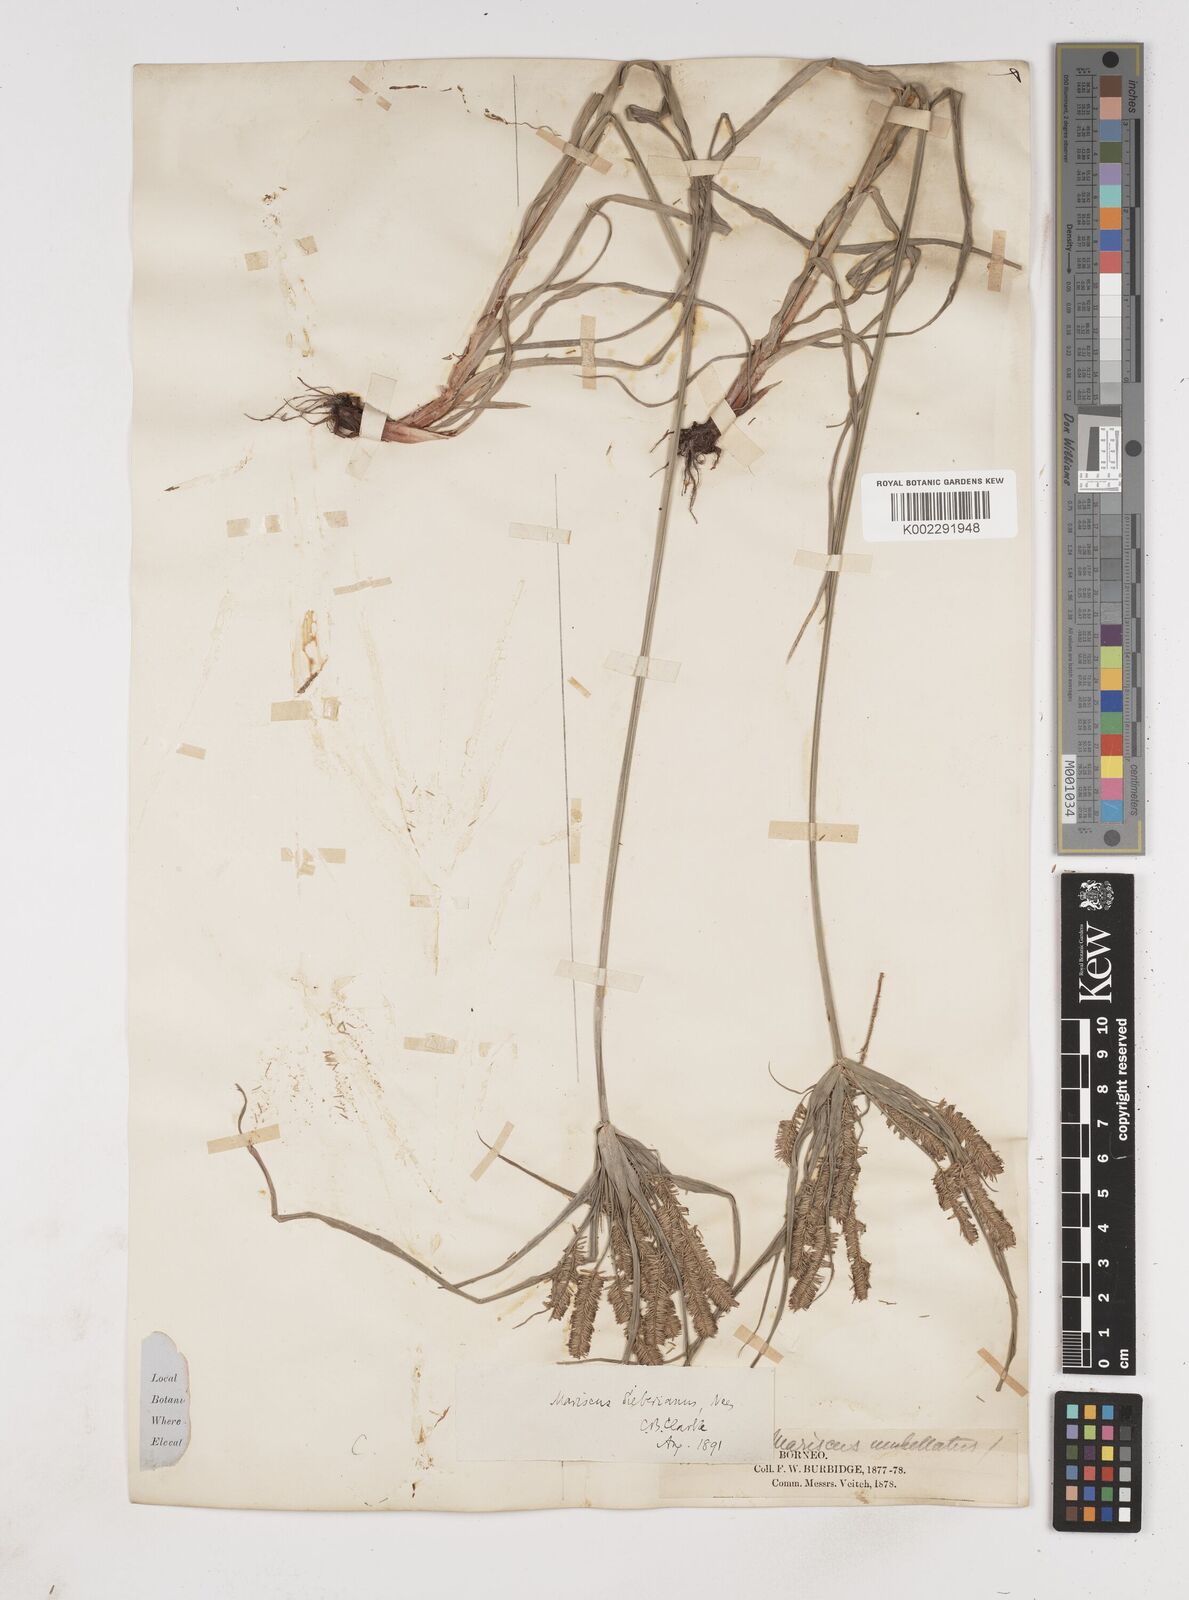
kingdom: Plantae
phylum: Tracheophyta
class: Liliopsida
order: Poales
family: Cyperaceae
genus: Cyperus
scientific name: Cyperus cyperoides
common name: Pacific island flat sedge
